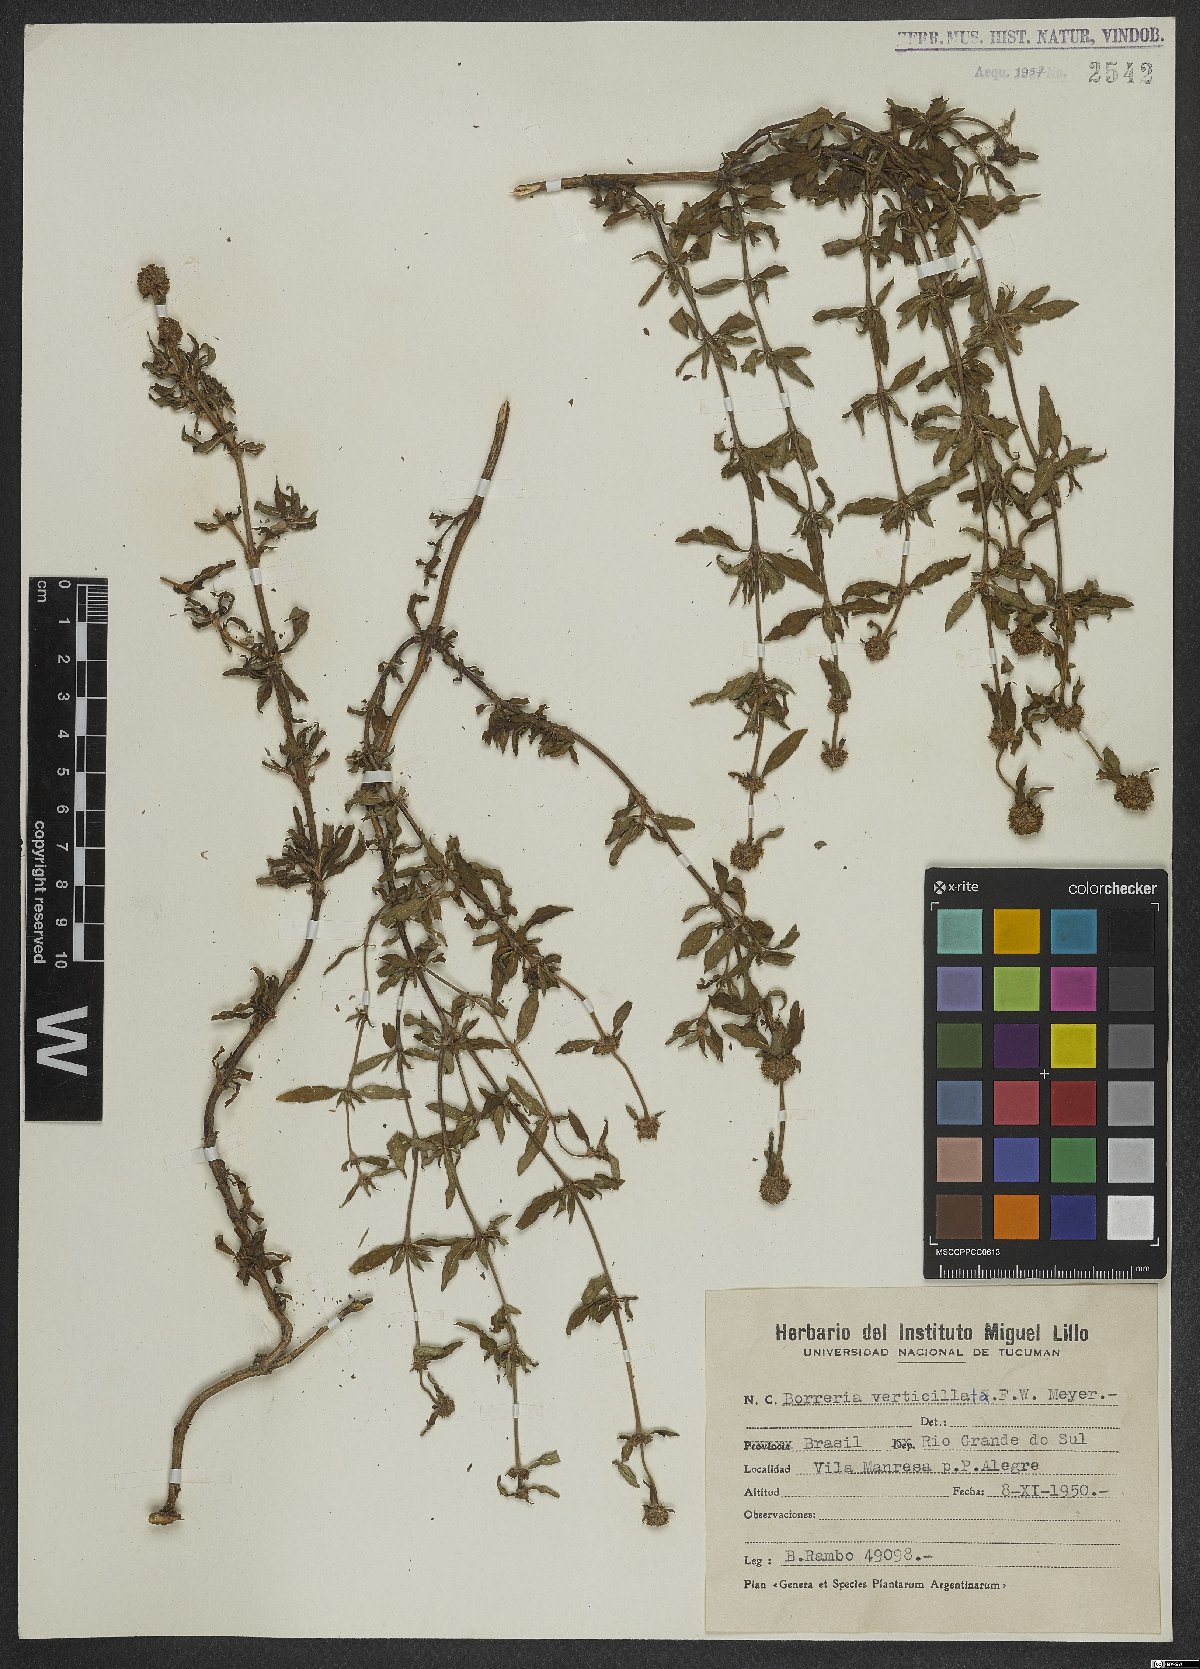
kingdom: Plantae
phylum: Tracheophyta
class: Magnoliopsida
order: Gentianales
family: Rubiaceae
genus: Spermacoce
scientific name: Spermacoce verticillata
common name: Shrubby false buttonweed
